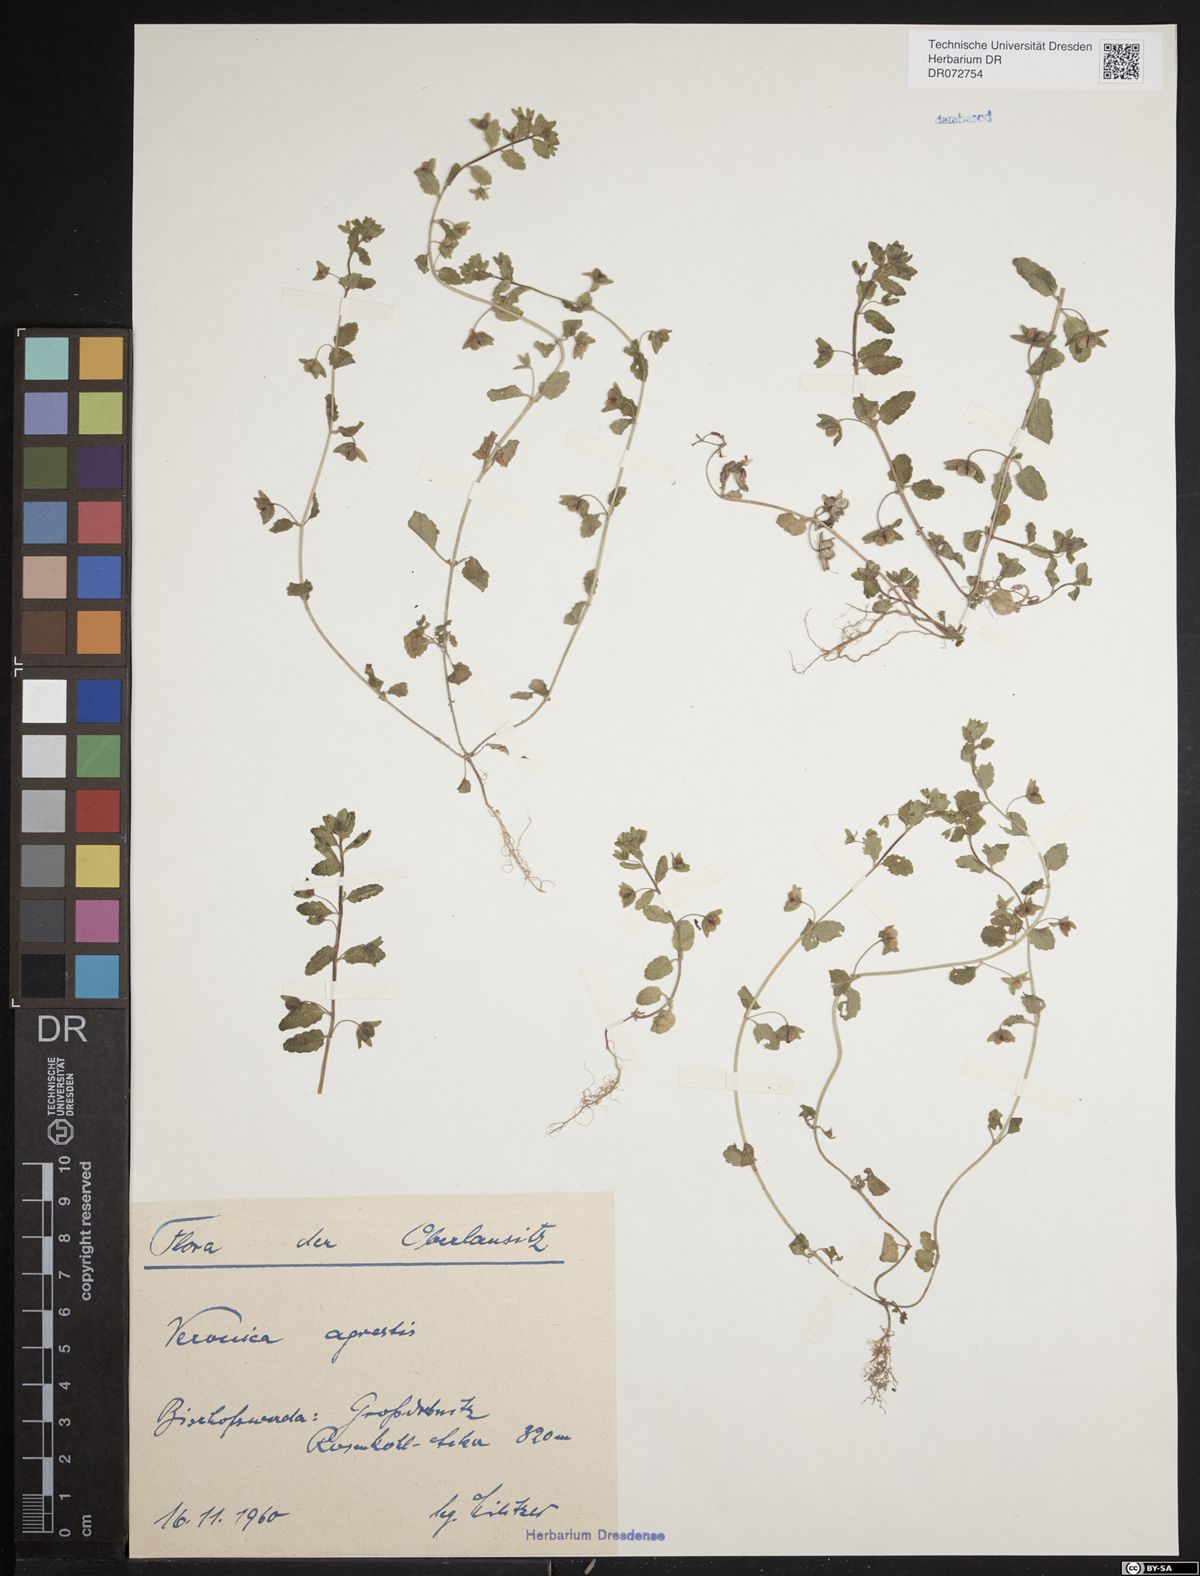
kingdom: Plantae
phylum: Tracheophyta
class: Magnoliopsida
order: Lamiales
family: Plantaginaceae
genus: Veronica
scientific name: Veronica agrestis
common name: Green field-speedwell
